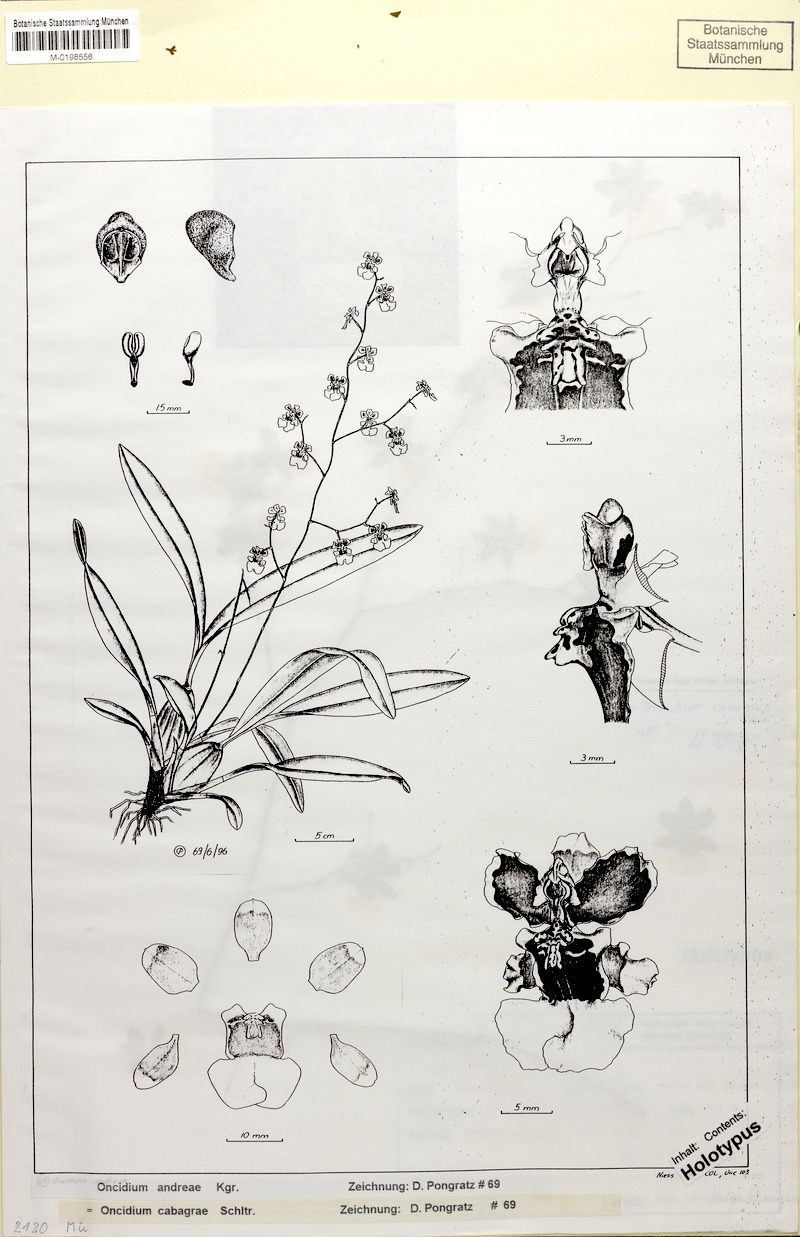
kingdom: Plantae
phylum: Tracheophyta
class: Liliopsida
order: Asparagales
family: Orchidaceae
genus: Oncidium
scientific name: Oncidium dichromaticum
